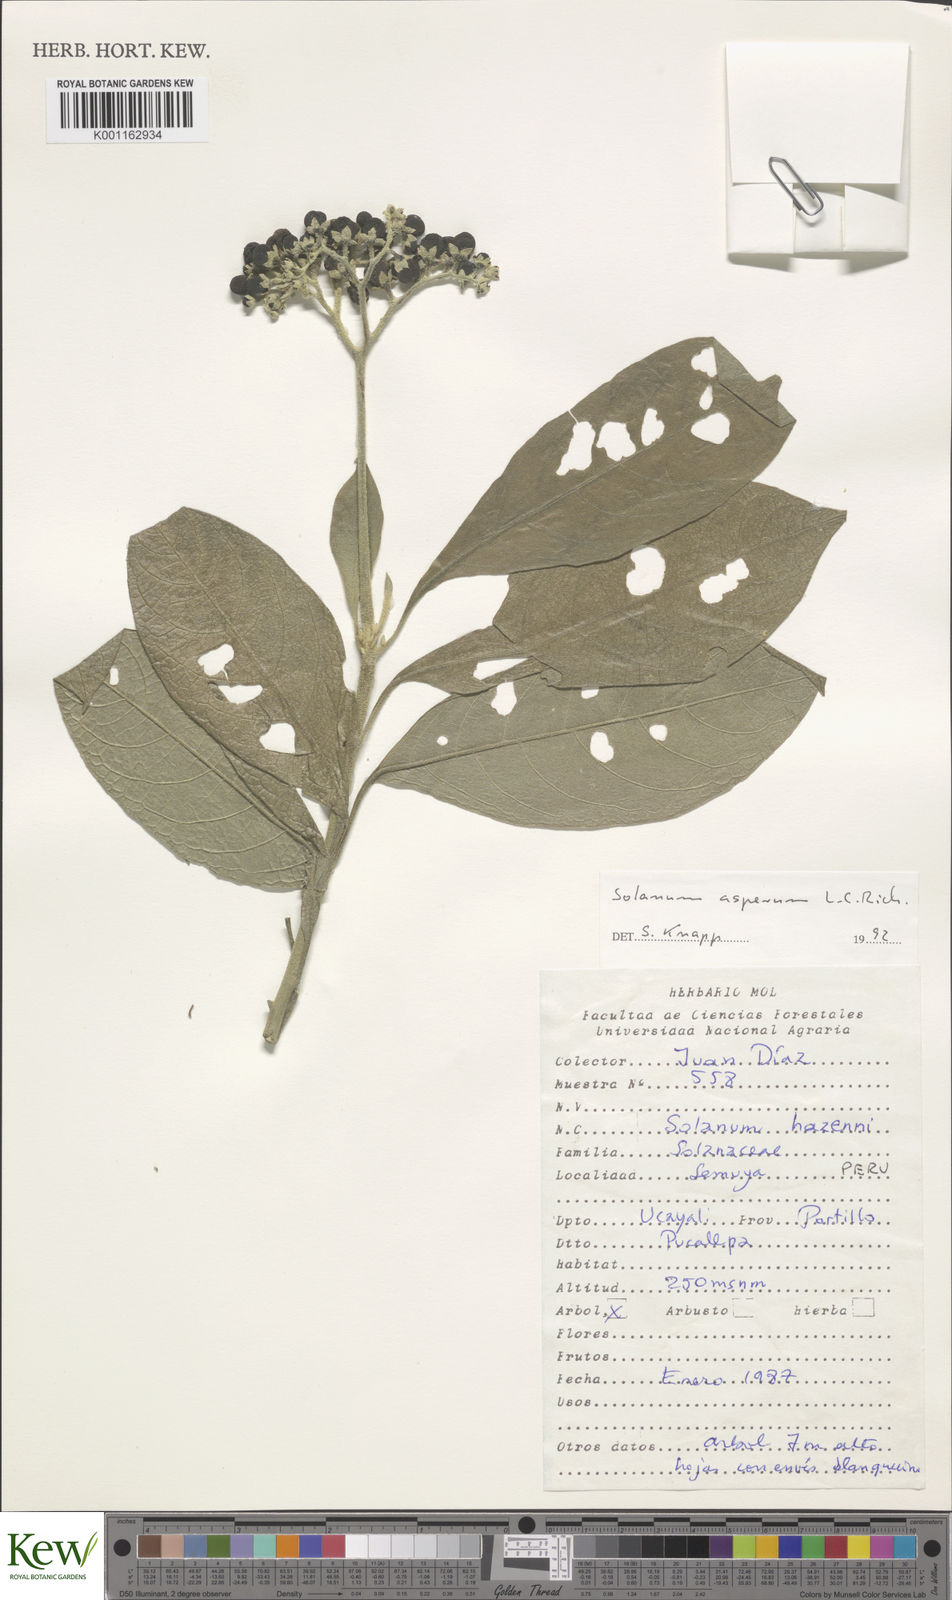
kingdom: Plantae
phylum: Tracheophyta
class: Magnoliopsida
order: Solanales
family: Solanaceae
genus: Solanum
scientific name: Solanum asperum
